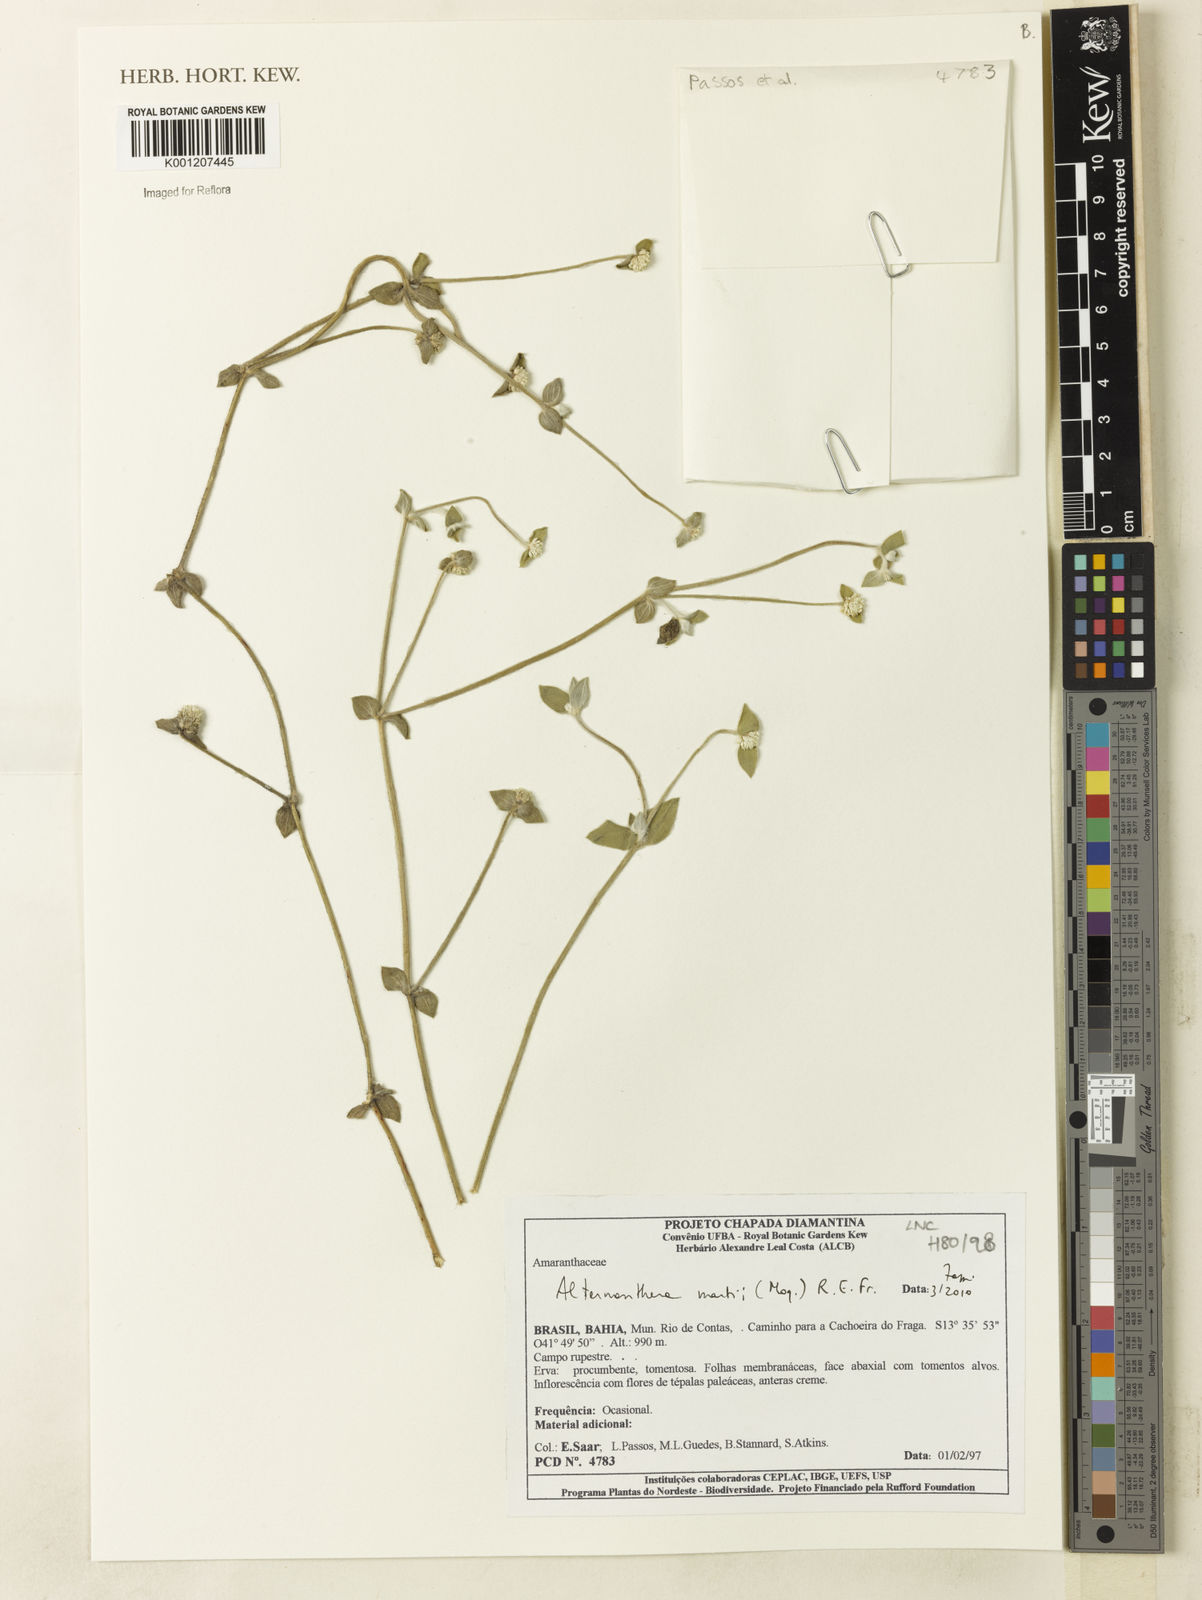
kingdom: Plantae
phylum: Tracheophyta
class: Magnoliopsida
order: Caryophyllales
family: Amaranthaceae
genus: Alternanthera
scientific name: Alternanthera martii
